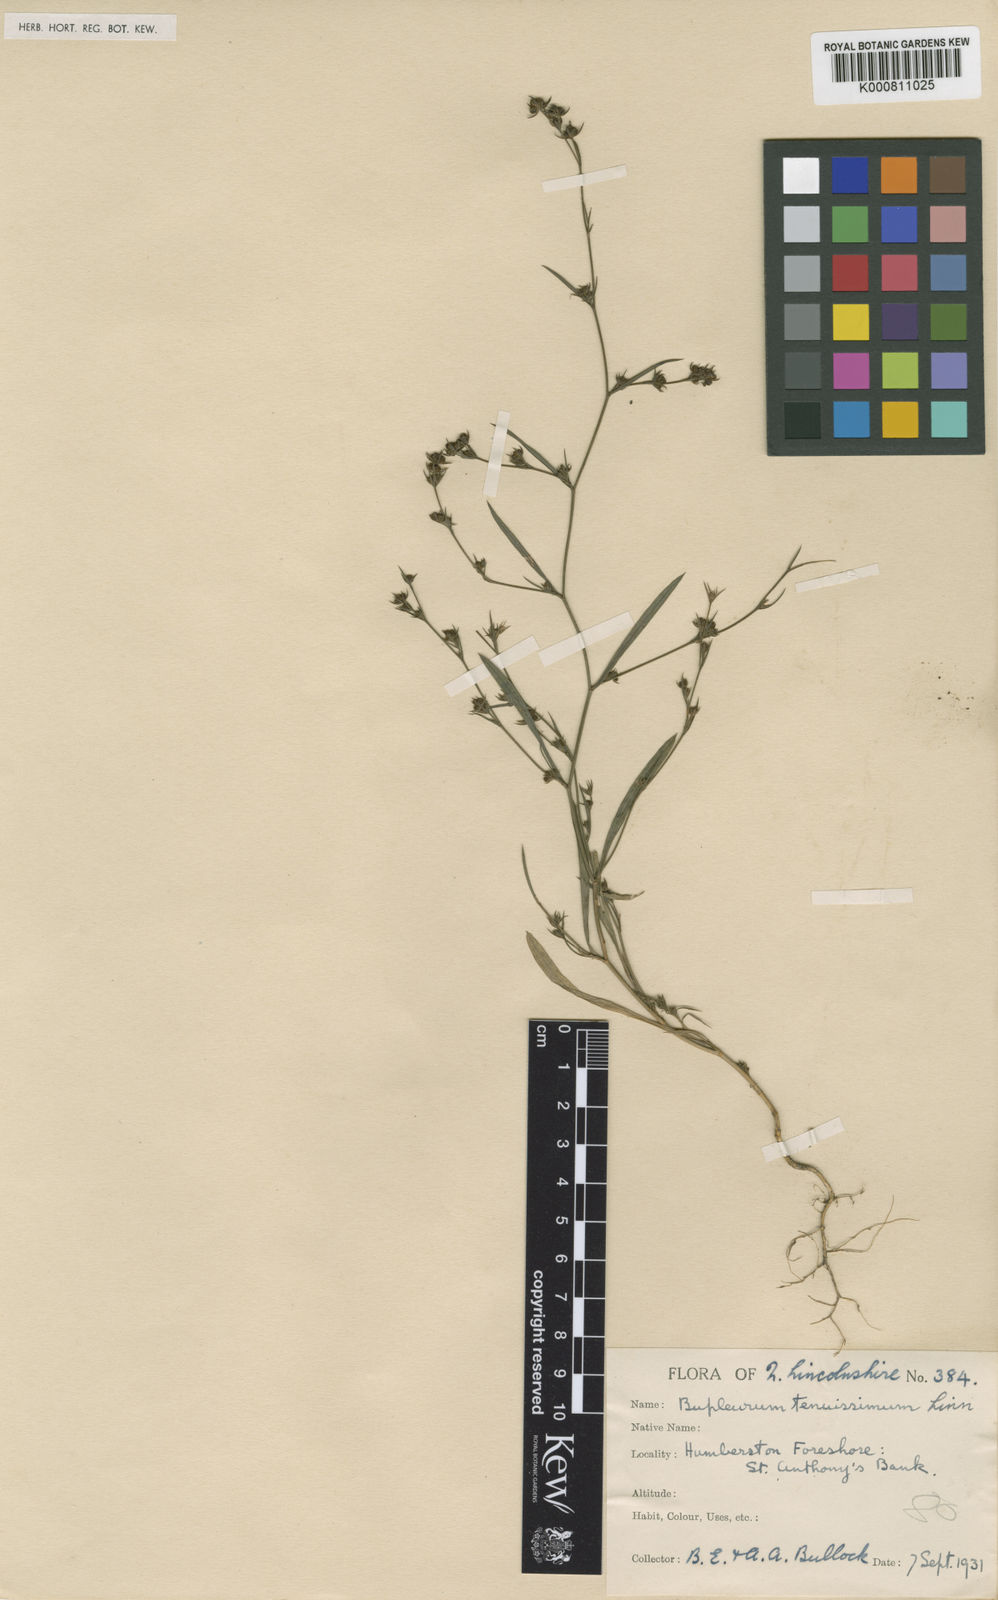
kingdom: Plantae
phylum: Tracheophyta
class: Magnoliopsida
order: Apiales
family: Apiaceae
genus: Bupleurum
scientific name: Bupleurum tenuissimum
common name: Slender hare's-ear
